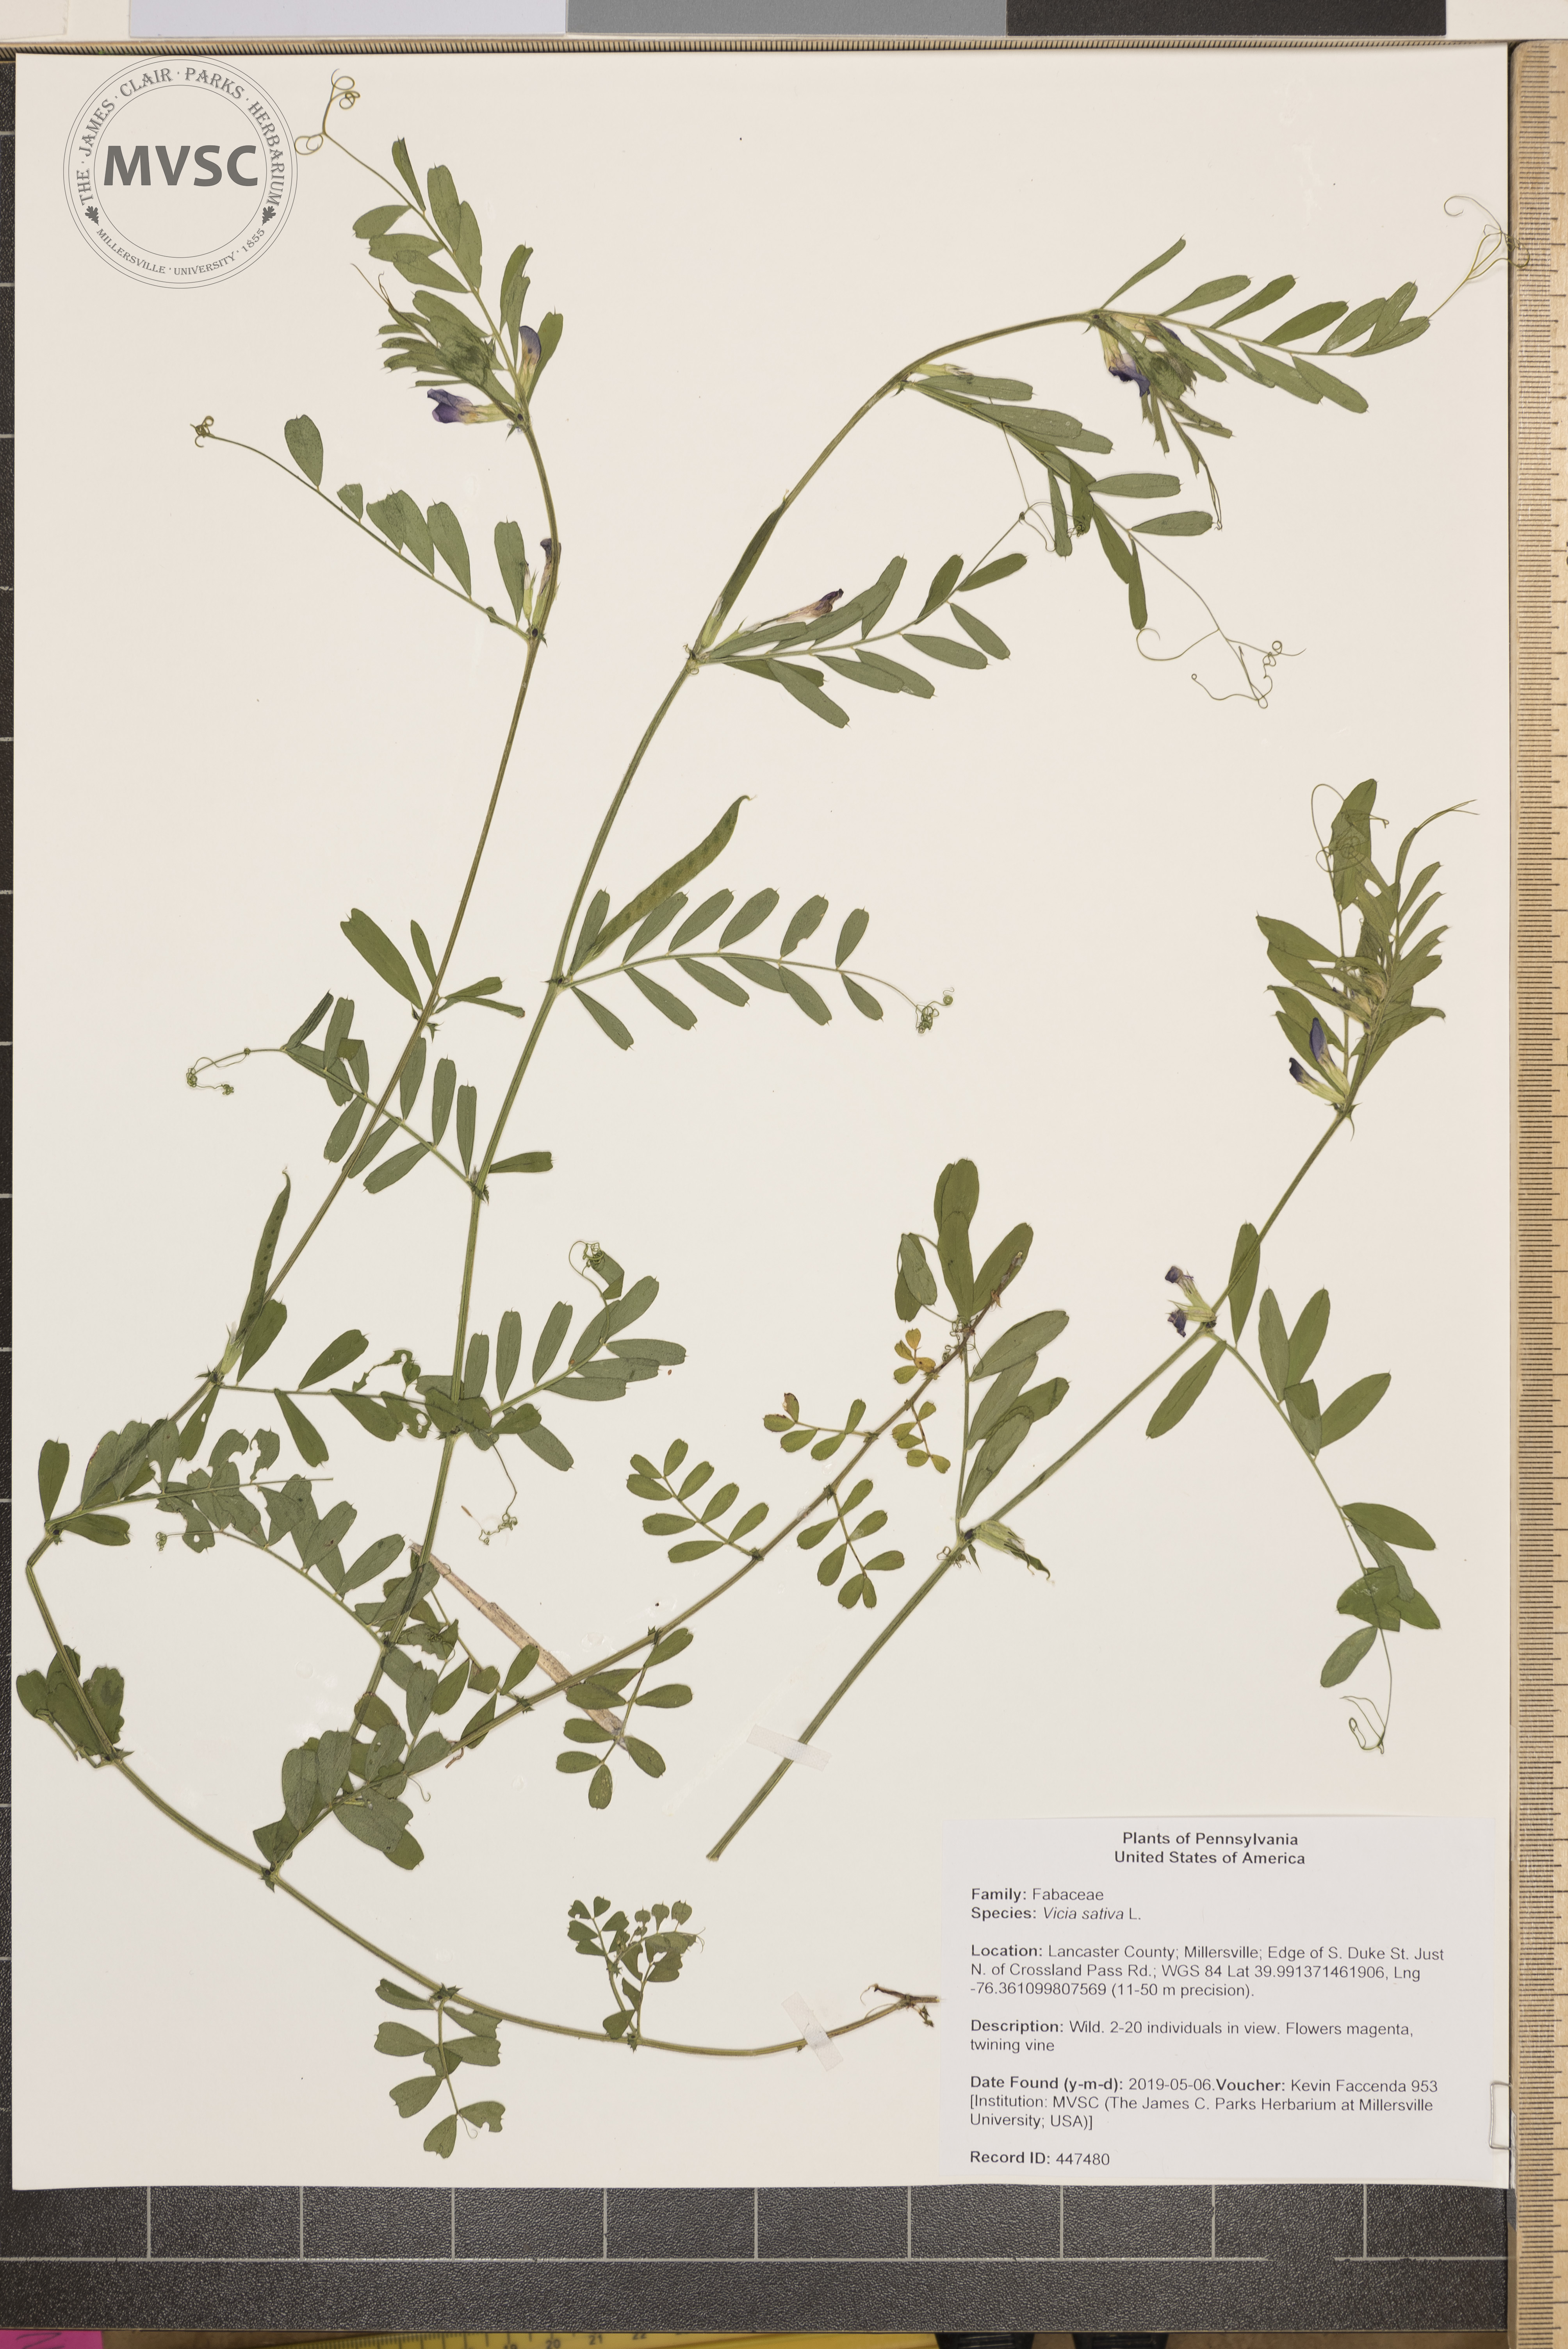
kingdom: Plantae
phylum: Tracheophyta
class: Magnoliopsida
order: Fabales
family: Fabaceae
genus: Vicia
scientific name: Vicia sativa
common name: Garden vetch
